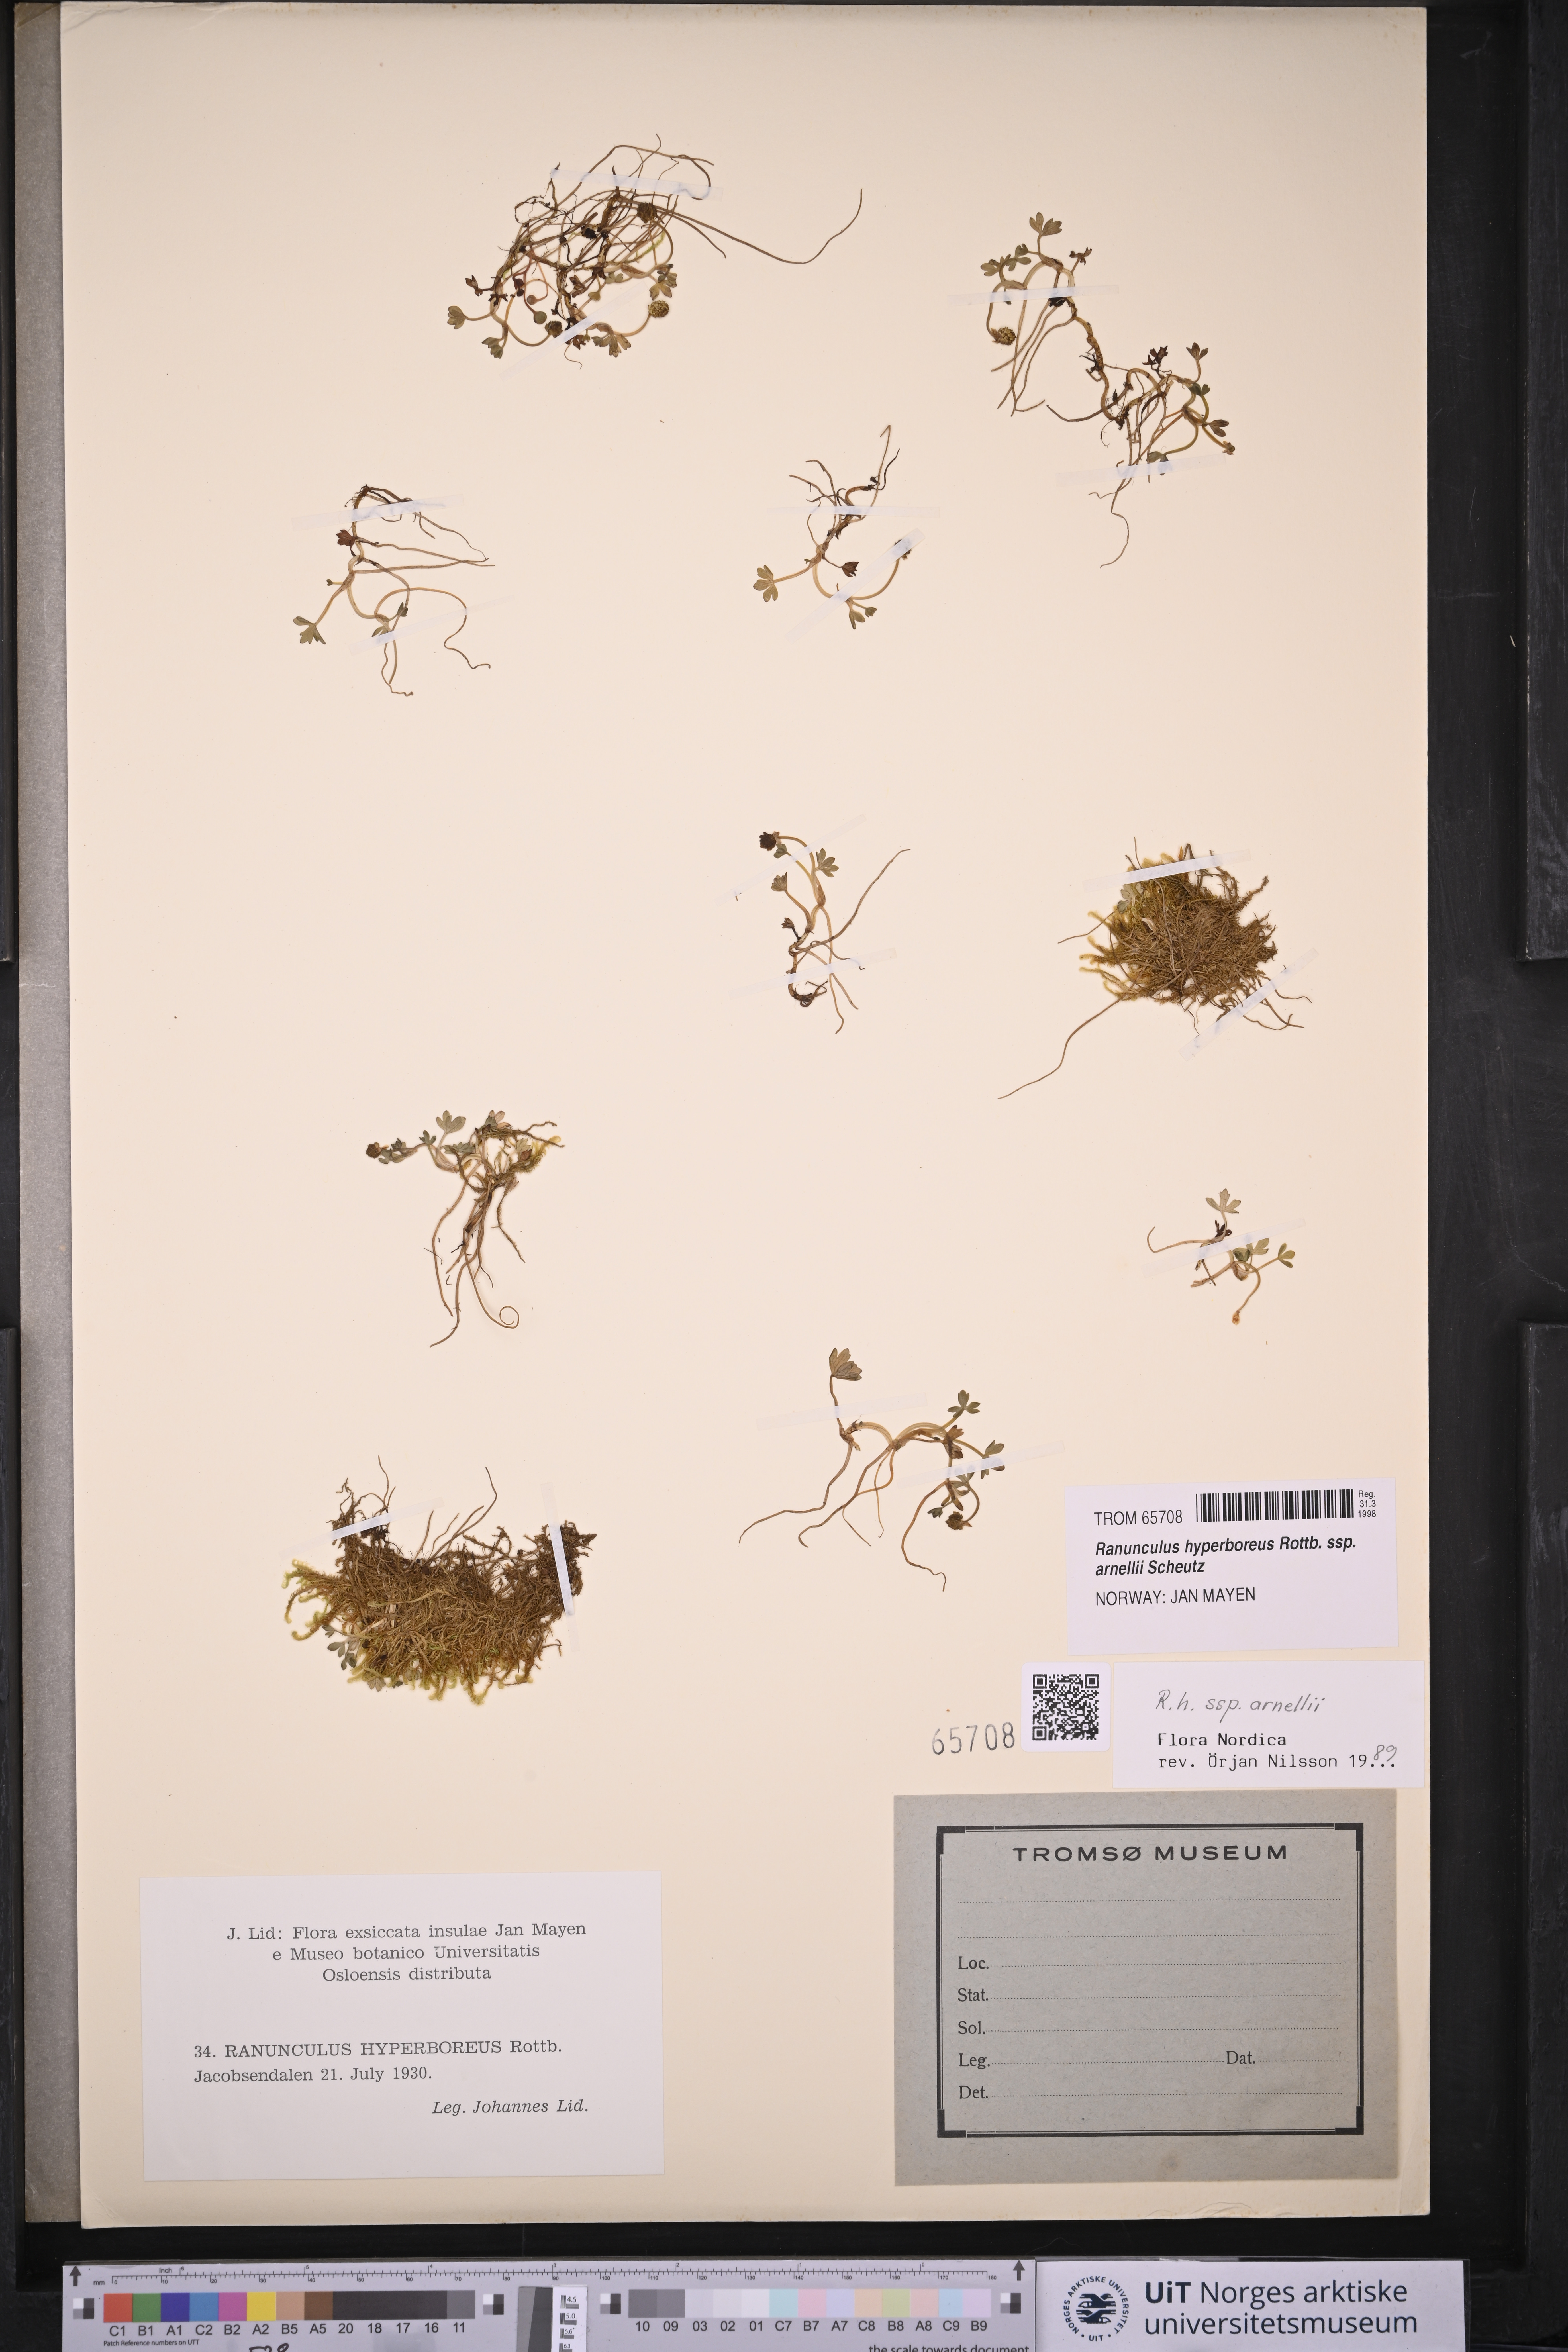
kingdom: Plantae
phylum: Tracheophyta
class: Magnoliopsida
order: Ranunculales
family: Ranunculaceae
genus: Ranunculus
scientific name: Ranunculus hyperboreus
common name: Arctic buttercup
